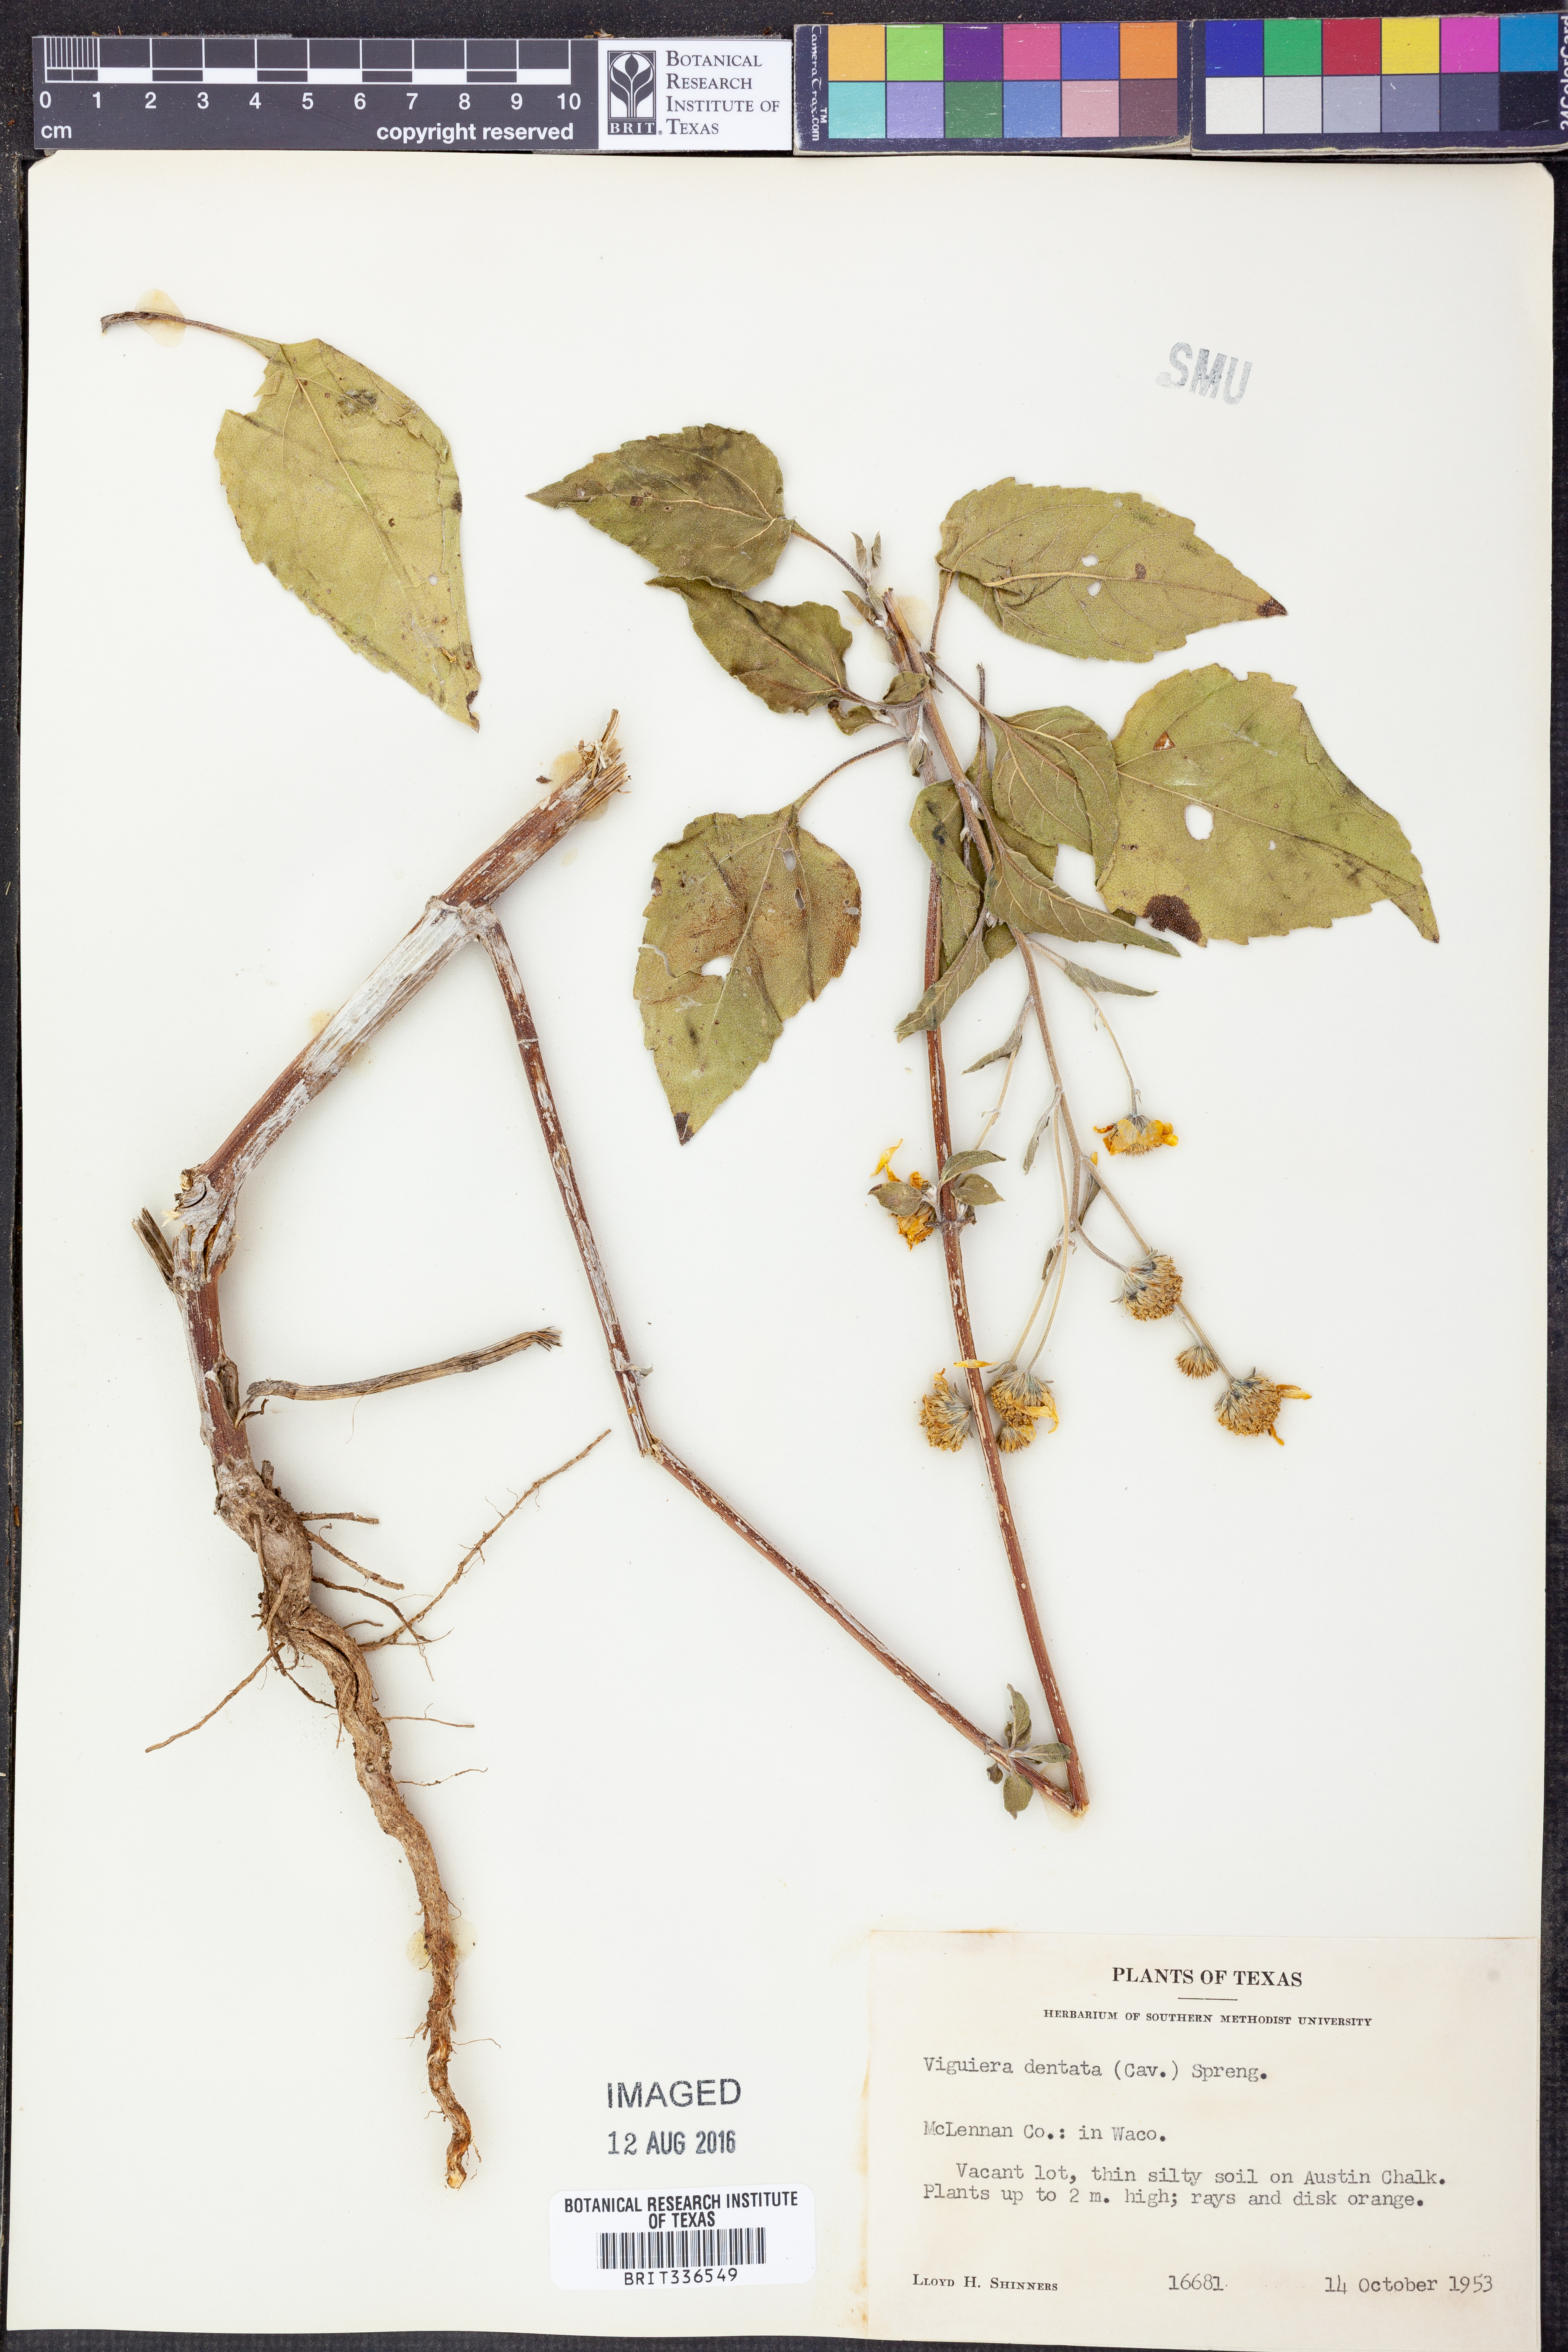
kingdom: Plantae
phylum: Tracheophyta
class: Magnoliopsida
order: Asterales
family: Asteraceae
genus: Viguiera
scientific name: Viguiera dentata
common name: Toothleaf
